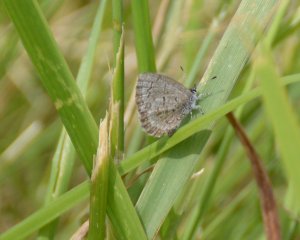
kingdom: Animalia
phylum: Arthropoda
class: Insecta
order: Lepidoptera
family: Lycaenidae
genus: Celastrina
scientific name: Celastrina lucia
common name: Northern Spring Azure
